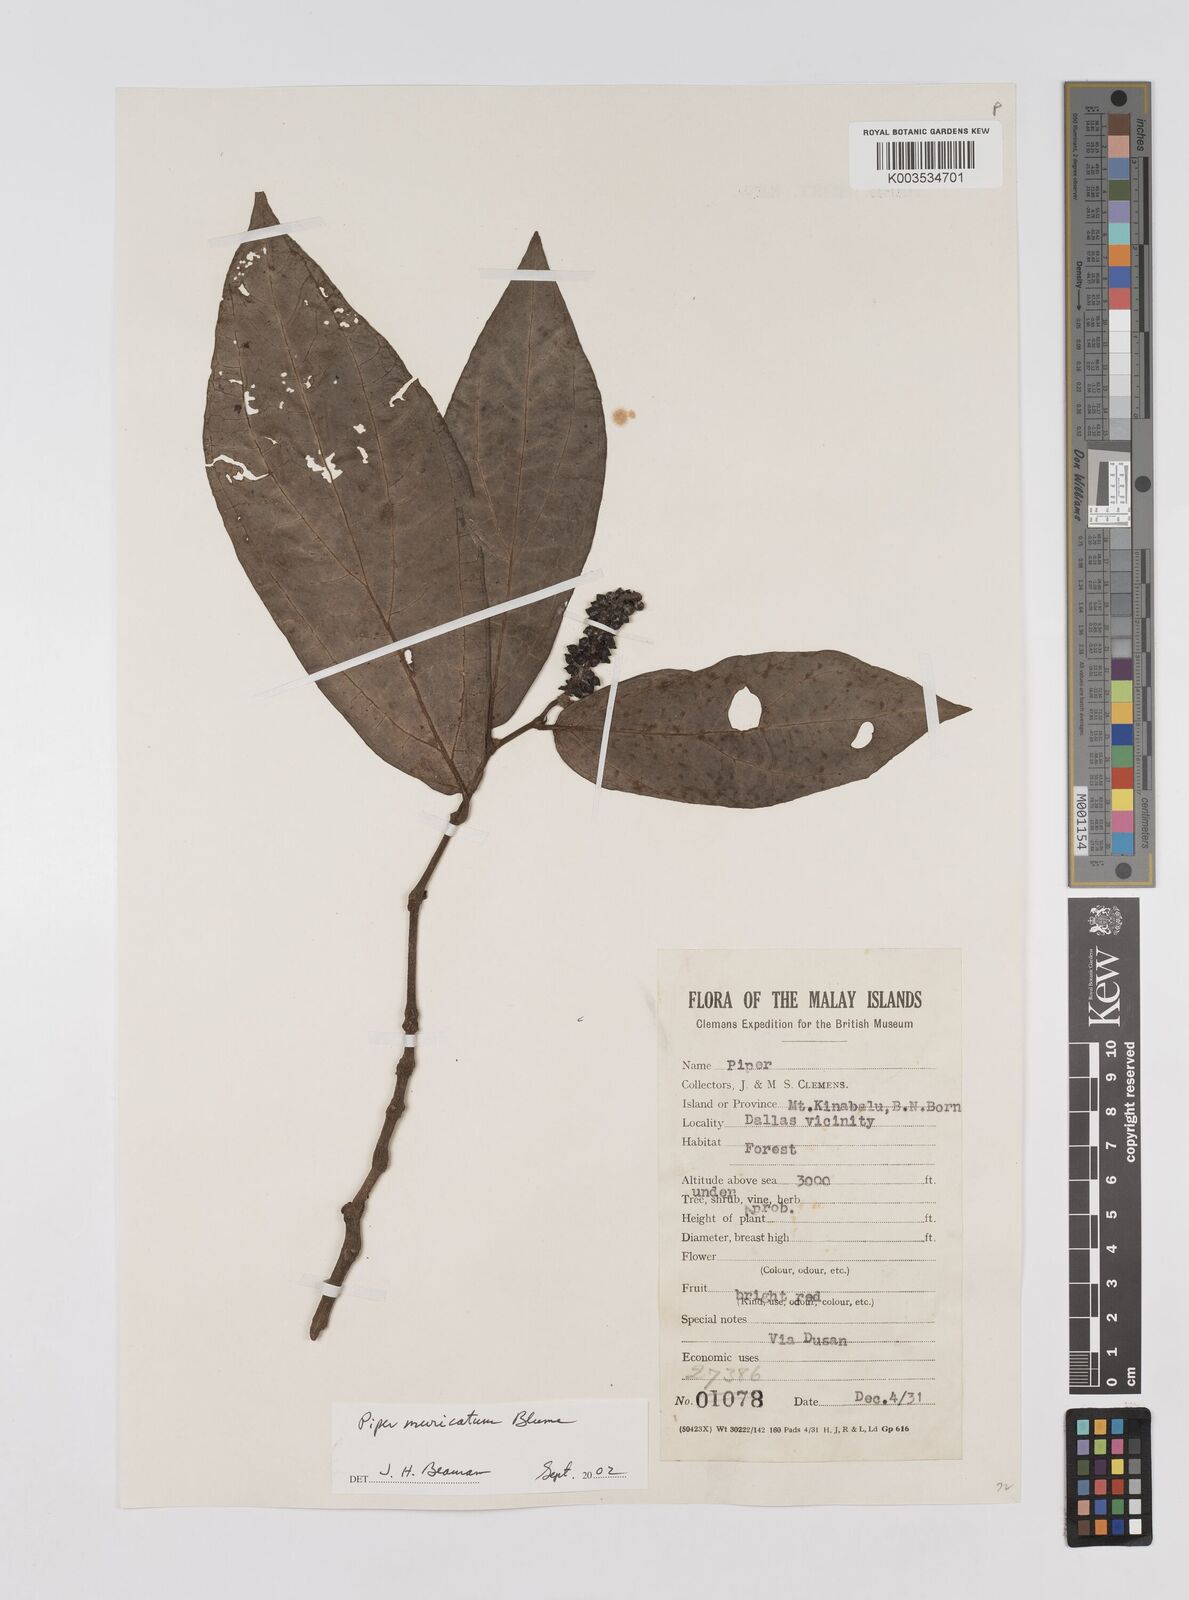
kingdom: Plantae
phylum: Tracheophyta
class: Magnoliopsida
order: Piperales
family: Piperaceae
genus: Piper
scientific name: Piper muricatum
